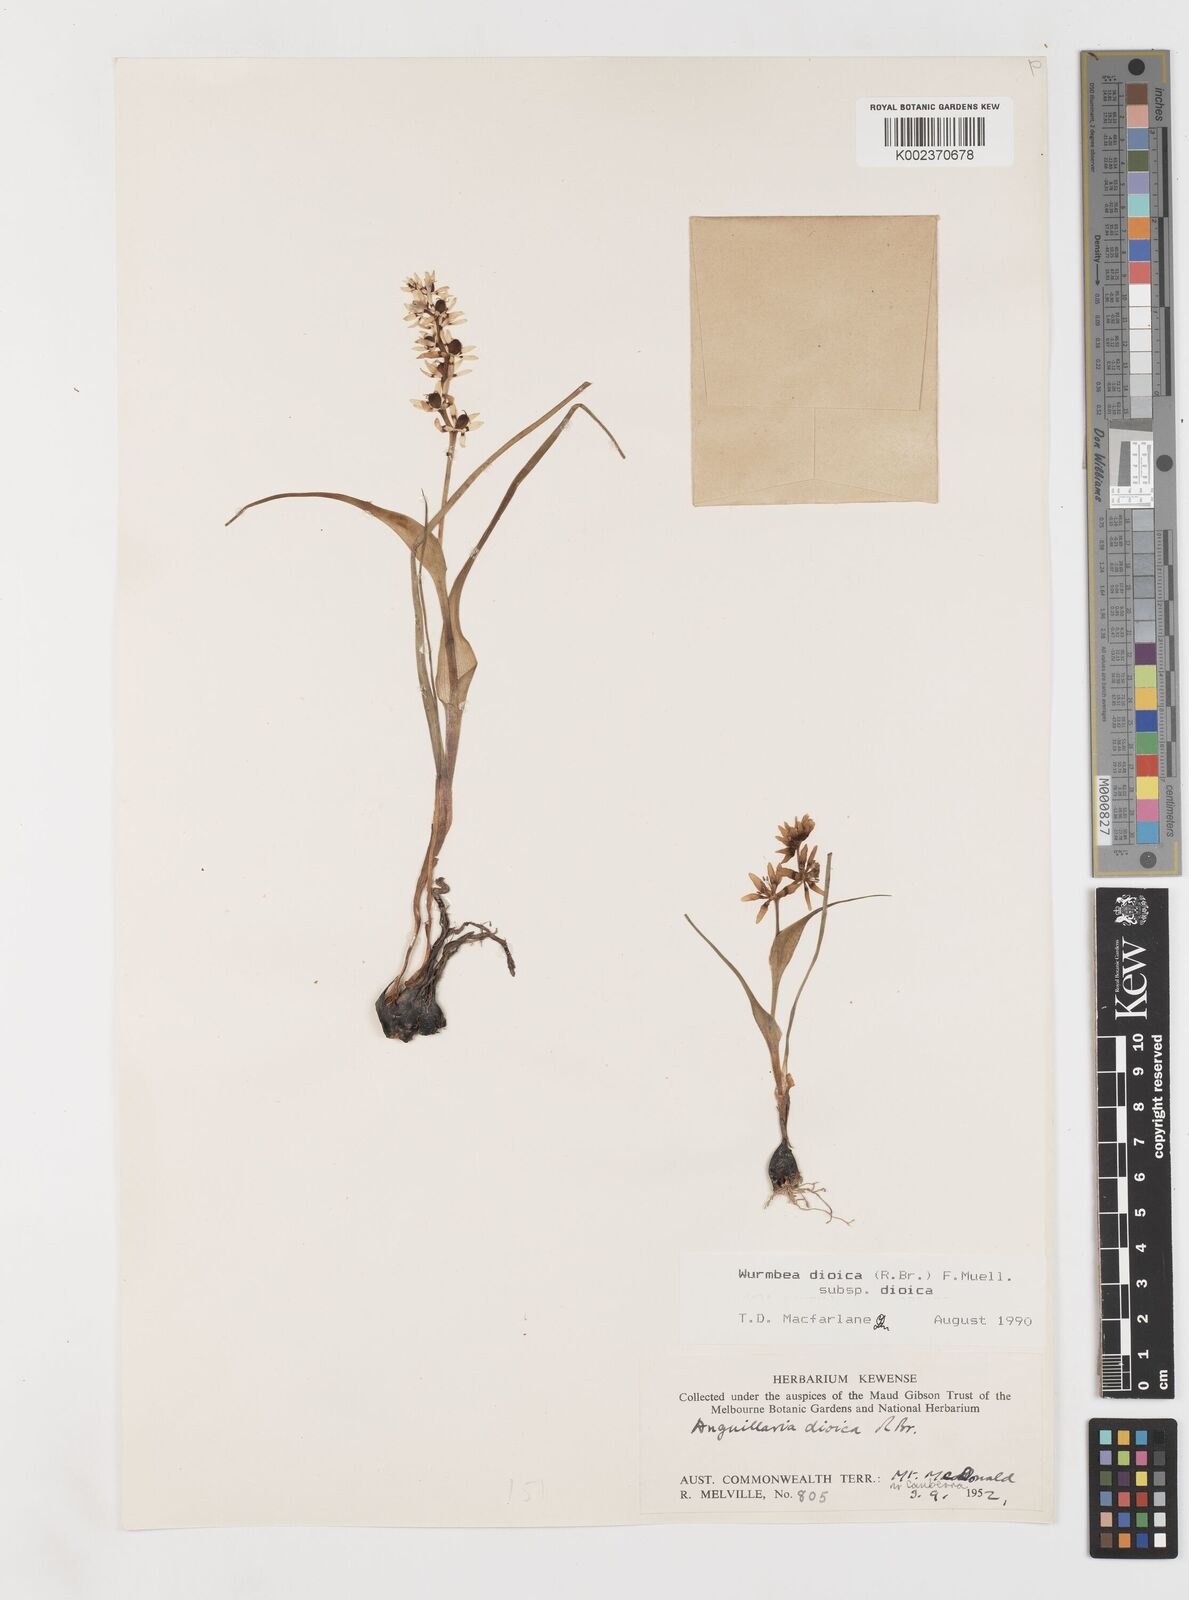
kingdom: Plantae
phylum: Tracheophyta
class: Liliopsida
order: Liliales
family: Colchicaceae
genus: Wurmbea
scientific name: Wurmbea dioica
